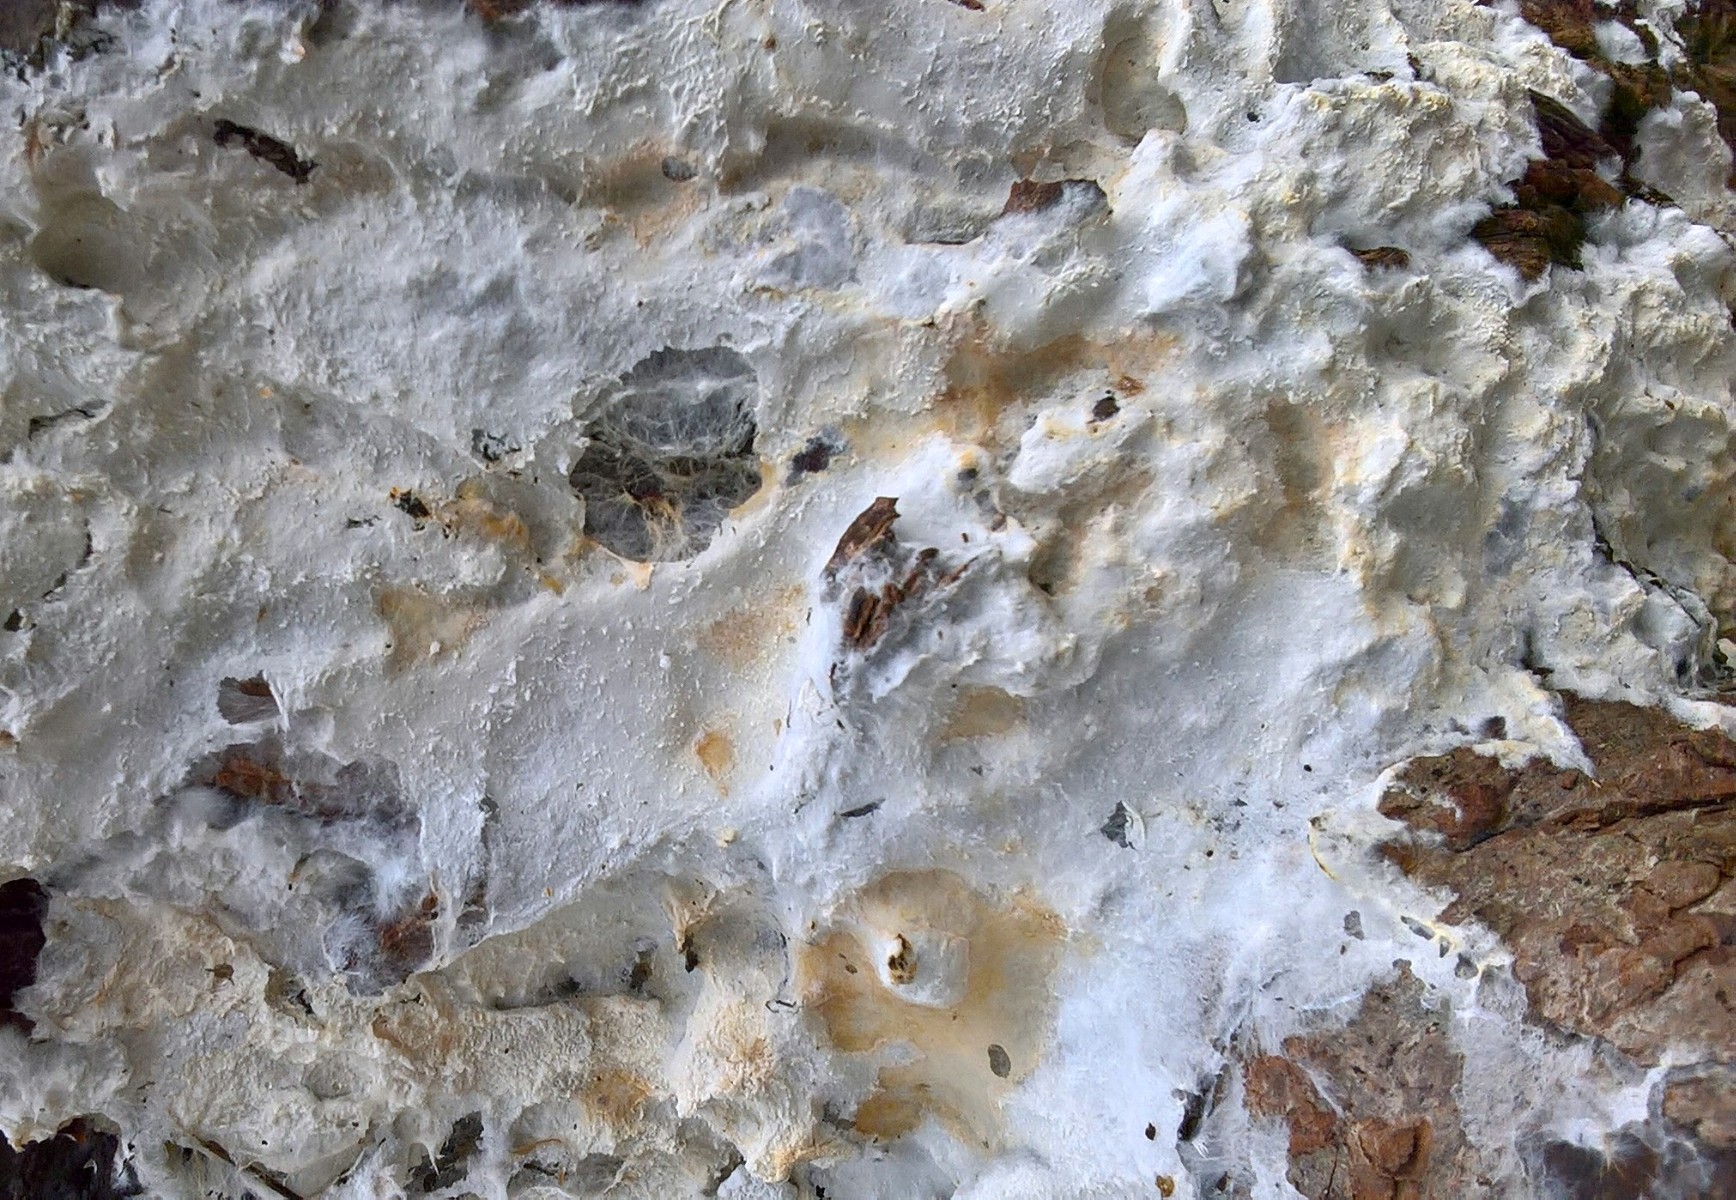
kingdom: Fungi
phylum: Basidiomycota
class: Agaricomycetes
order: Corticiales
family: Corticiaceae
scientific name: Corticiaceae
